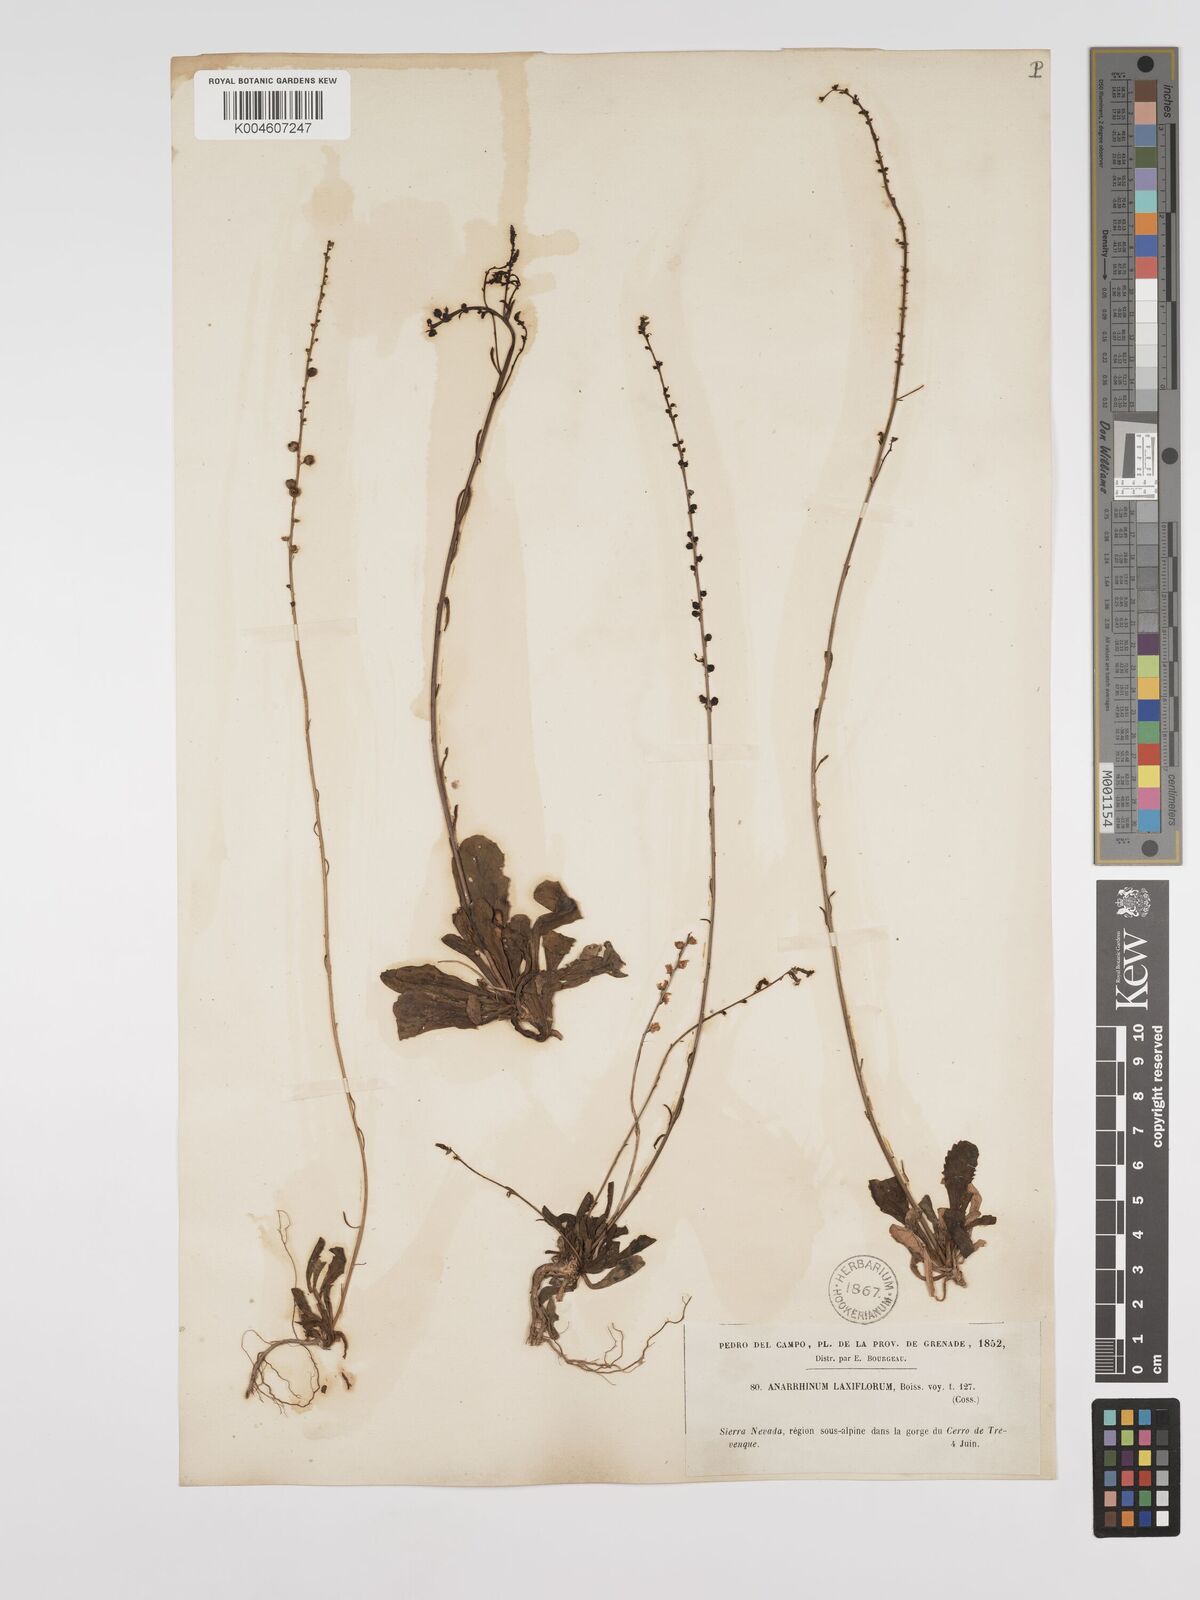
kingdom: Plantae
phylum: Tracheophyta
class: Magnoliopsida
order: Lamiales
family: Plantaginaceae
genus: Anarrhinum
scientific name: Anarrhinum laxiflorum
